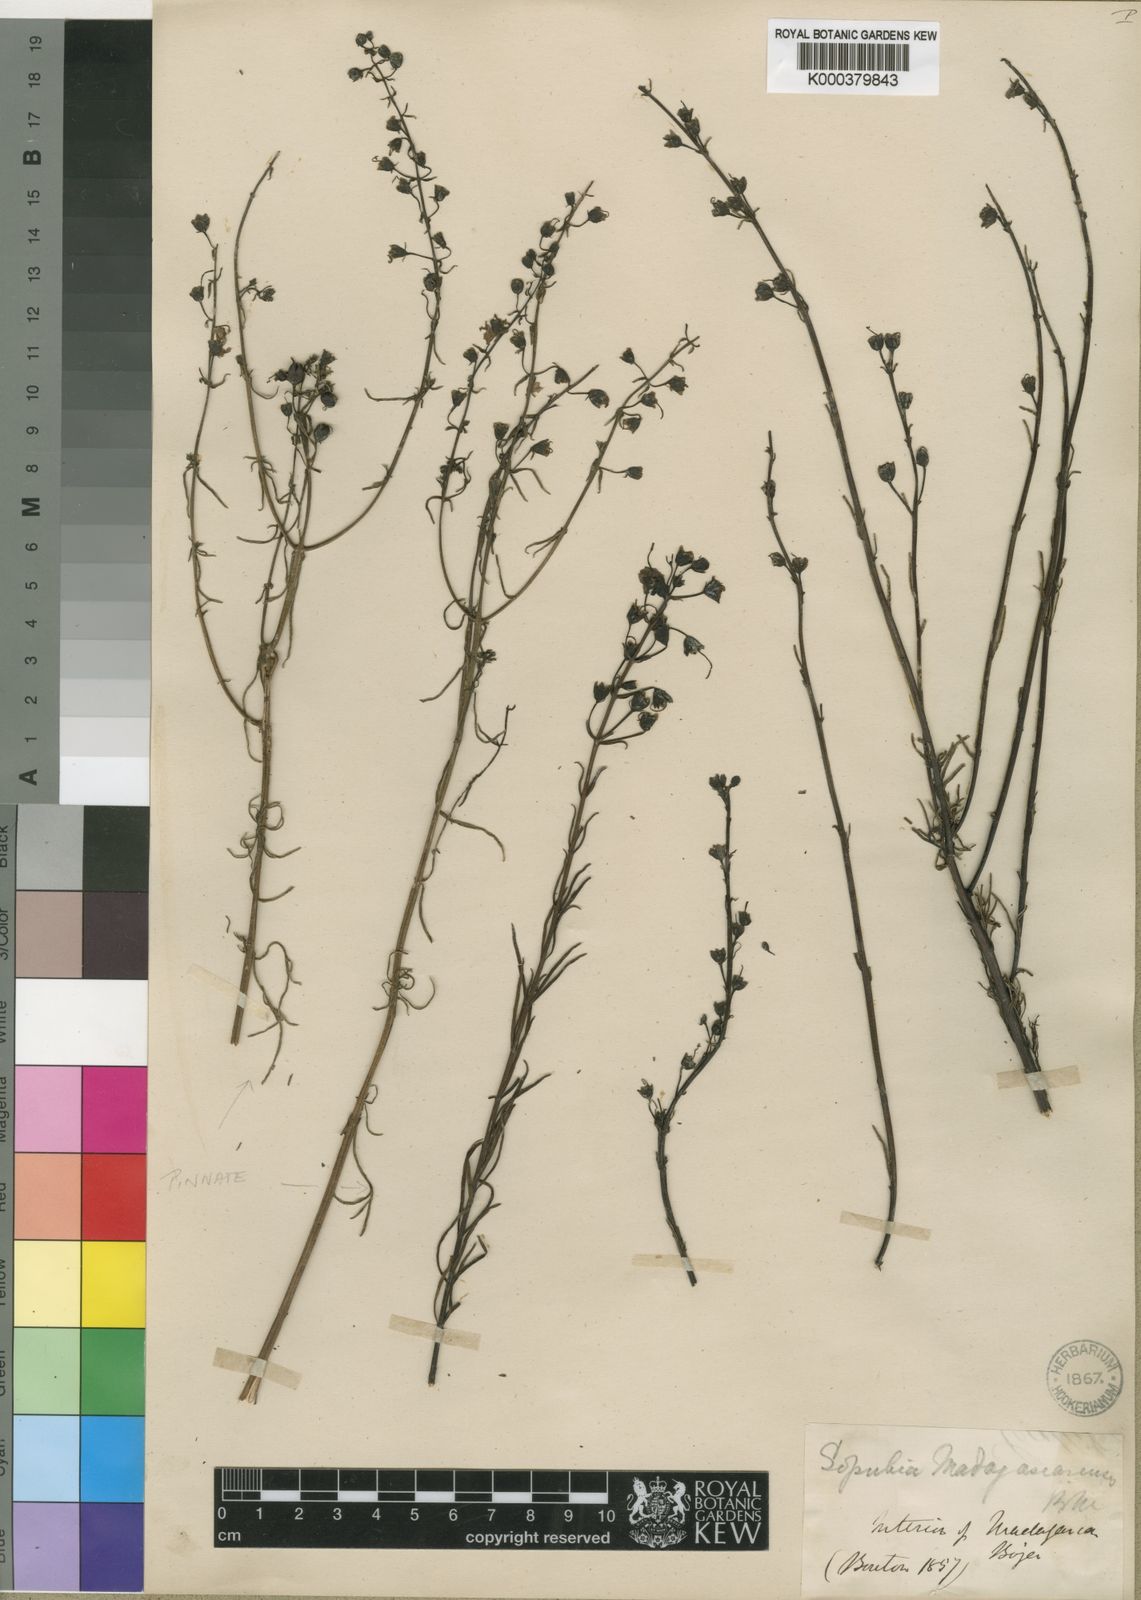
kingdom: Plantae
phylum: Tracheophyta
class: Magnoliopsida
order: Lamiales
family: Orobanchaceae
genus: Sopubia
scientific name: Sopubia
